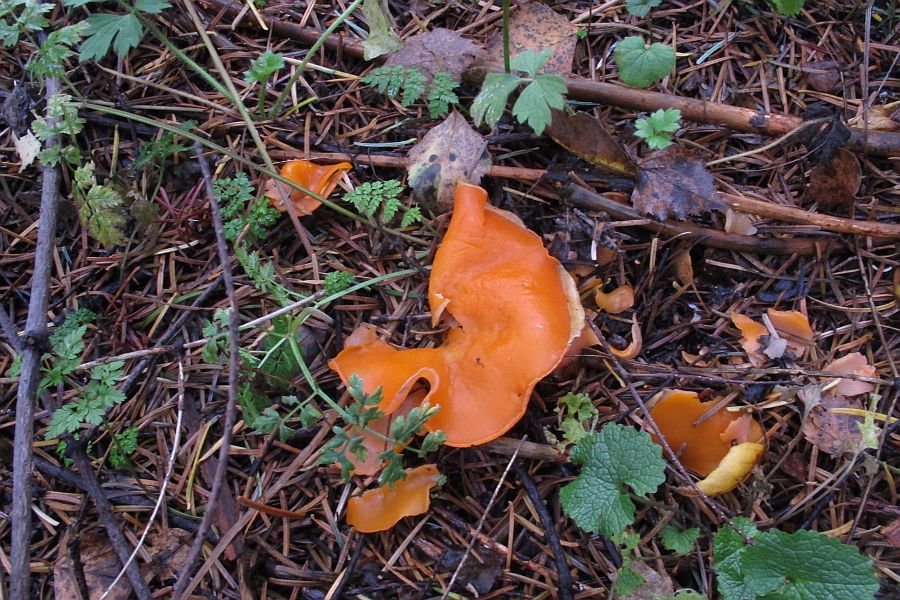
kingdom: Fungi
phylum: Ascomycota
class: Pezizomycetes
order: Pezizales
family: Pyronemataceae
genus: Aleuria
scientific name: Aleuria aurantia
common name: almindelig orangebæger
